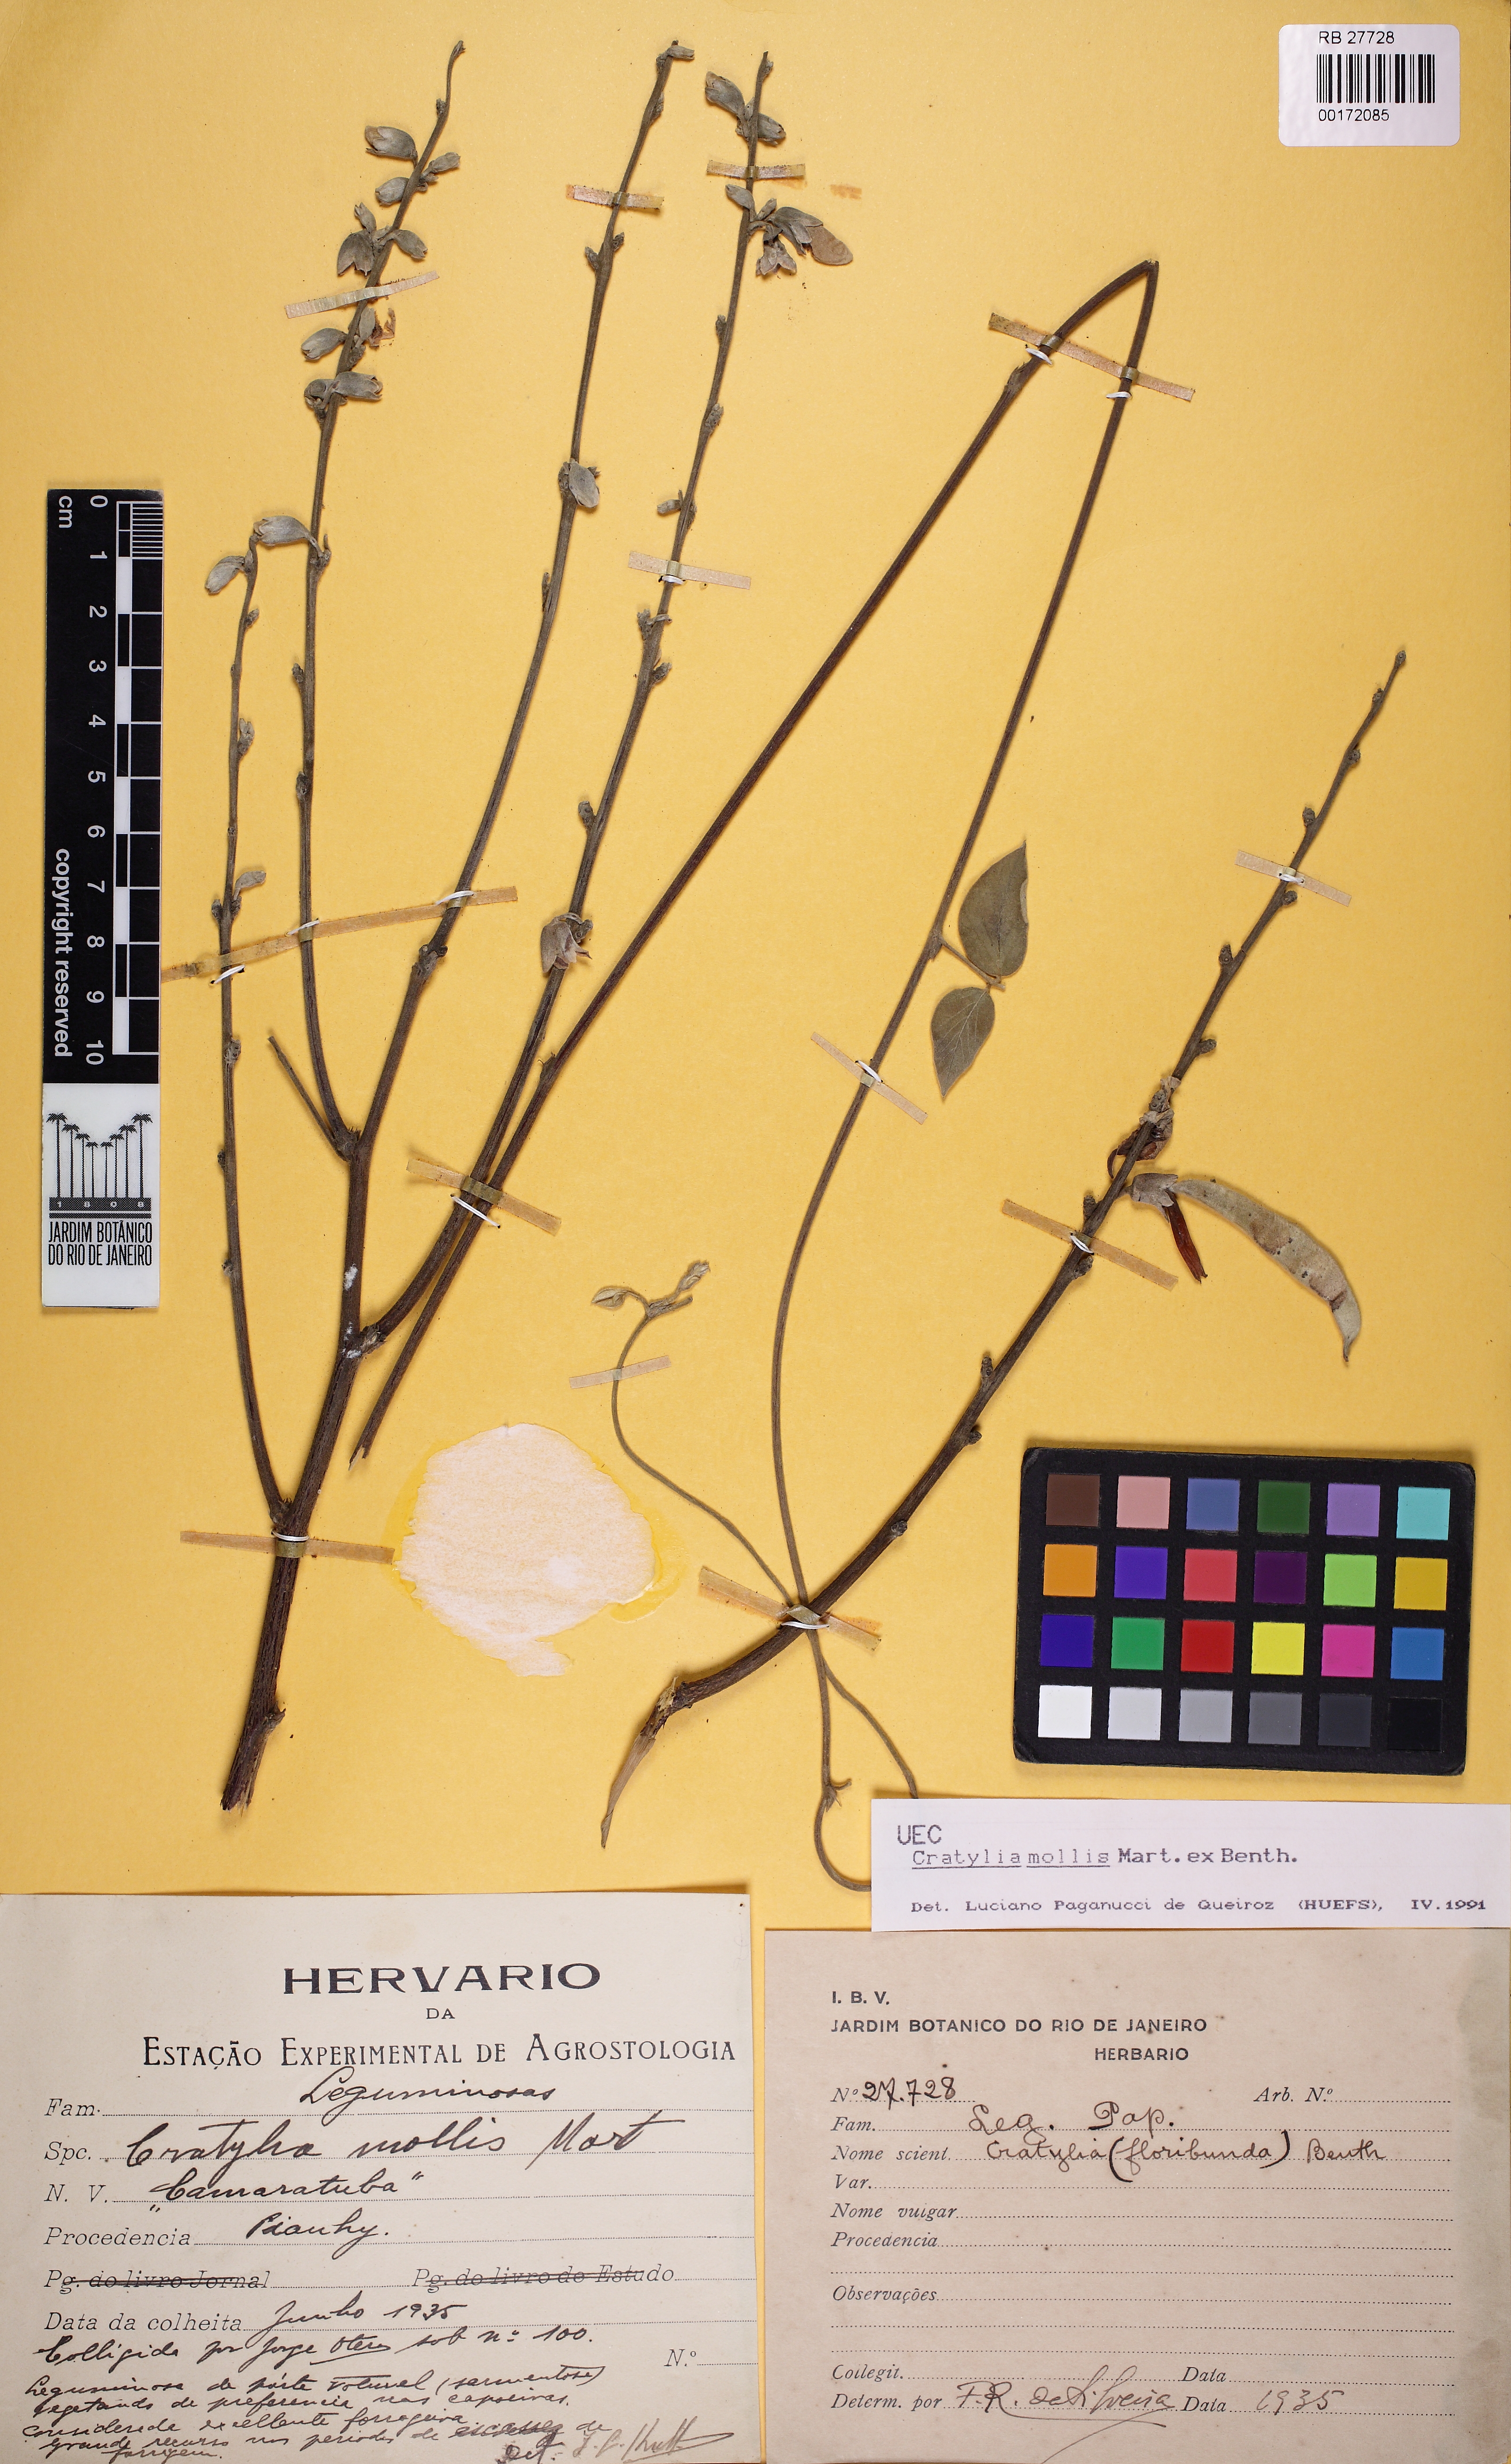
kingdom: Plantae
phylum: Tracheophyta
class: Magnoliopsida
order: Fabales
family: Fabaceae
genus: Cratylia
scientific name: Cratylia mollis
